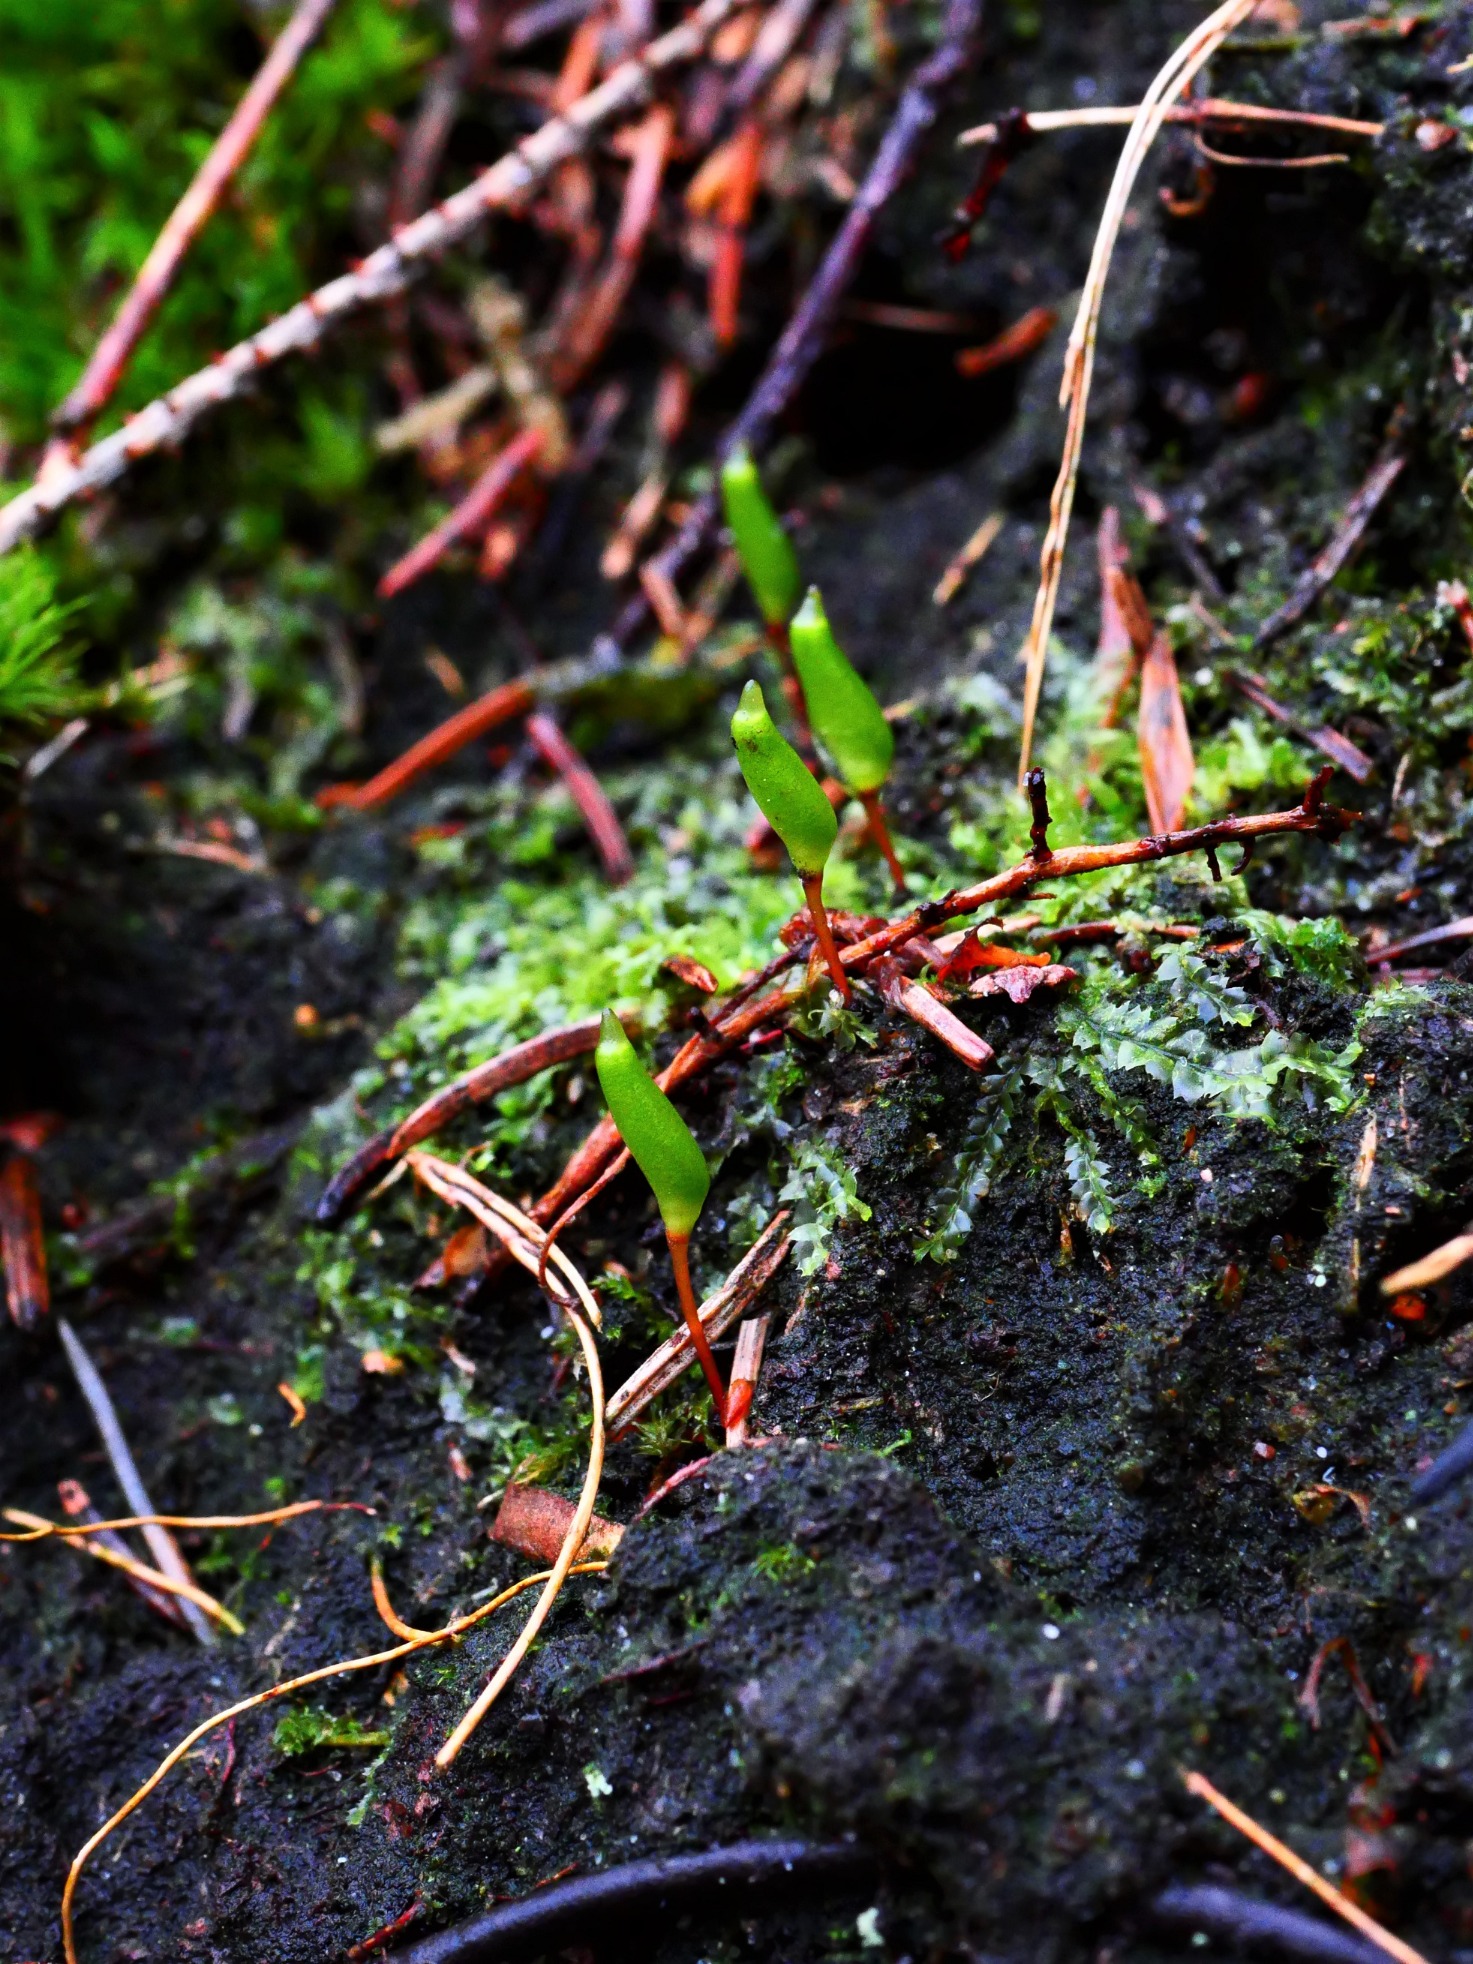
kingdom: Plantae
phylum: Bryophyta
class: Bryopsida
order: Buxbaumiales
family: Buxbaumiaceae
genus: Buxbaumia
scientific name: Buxbaumia viridis
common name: Grøn buxbaumia
